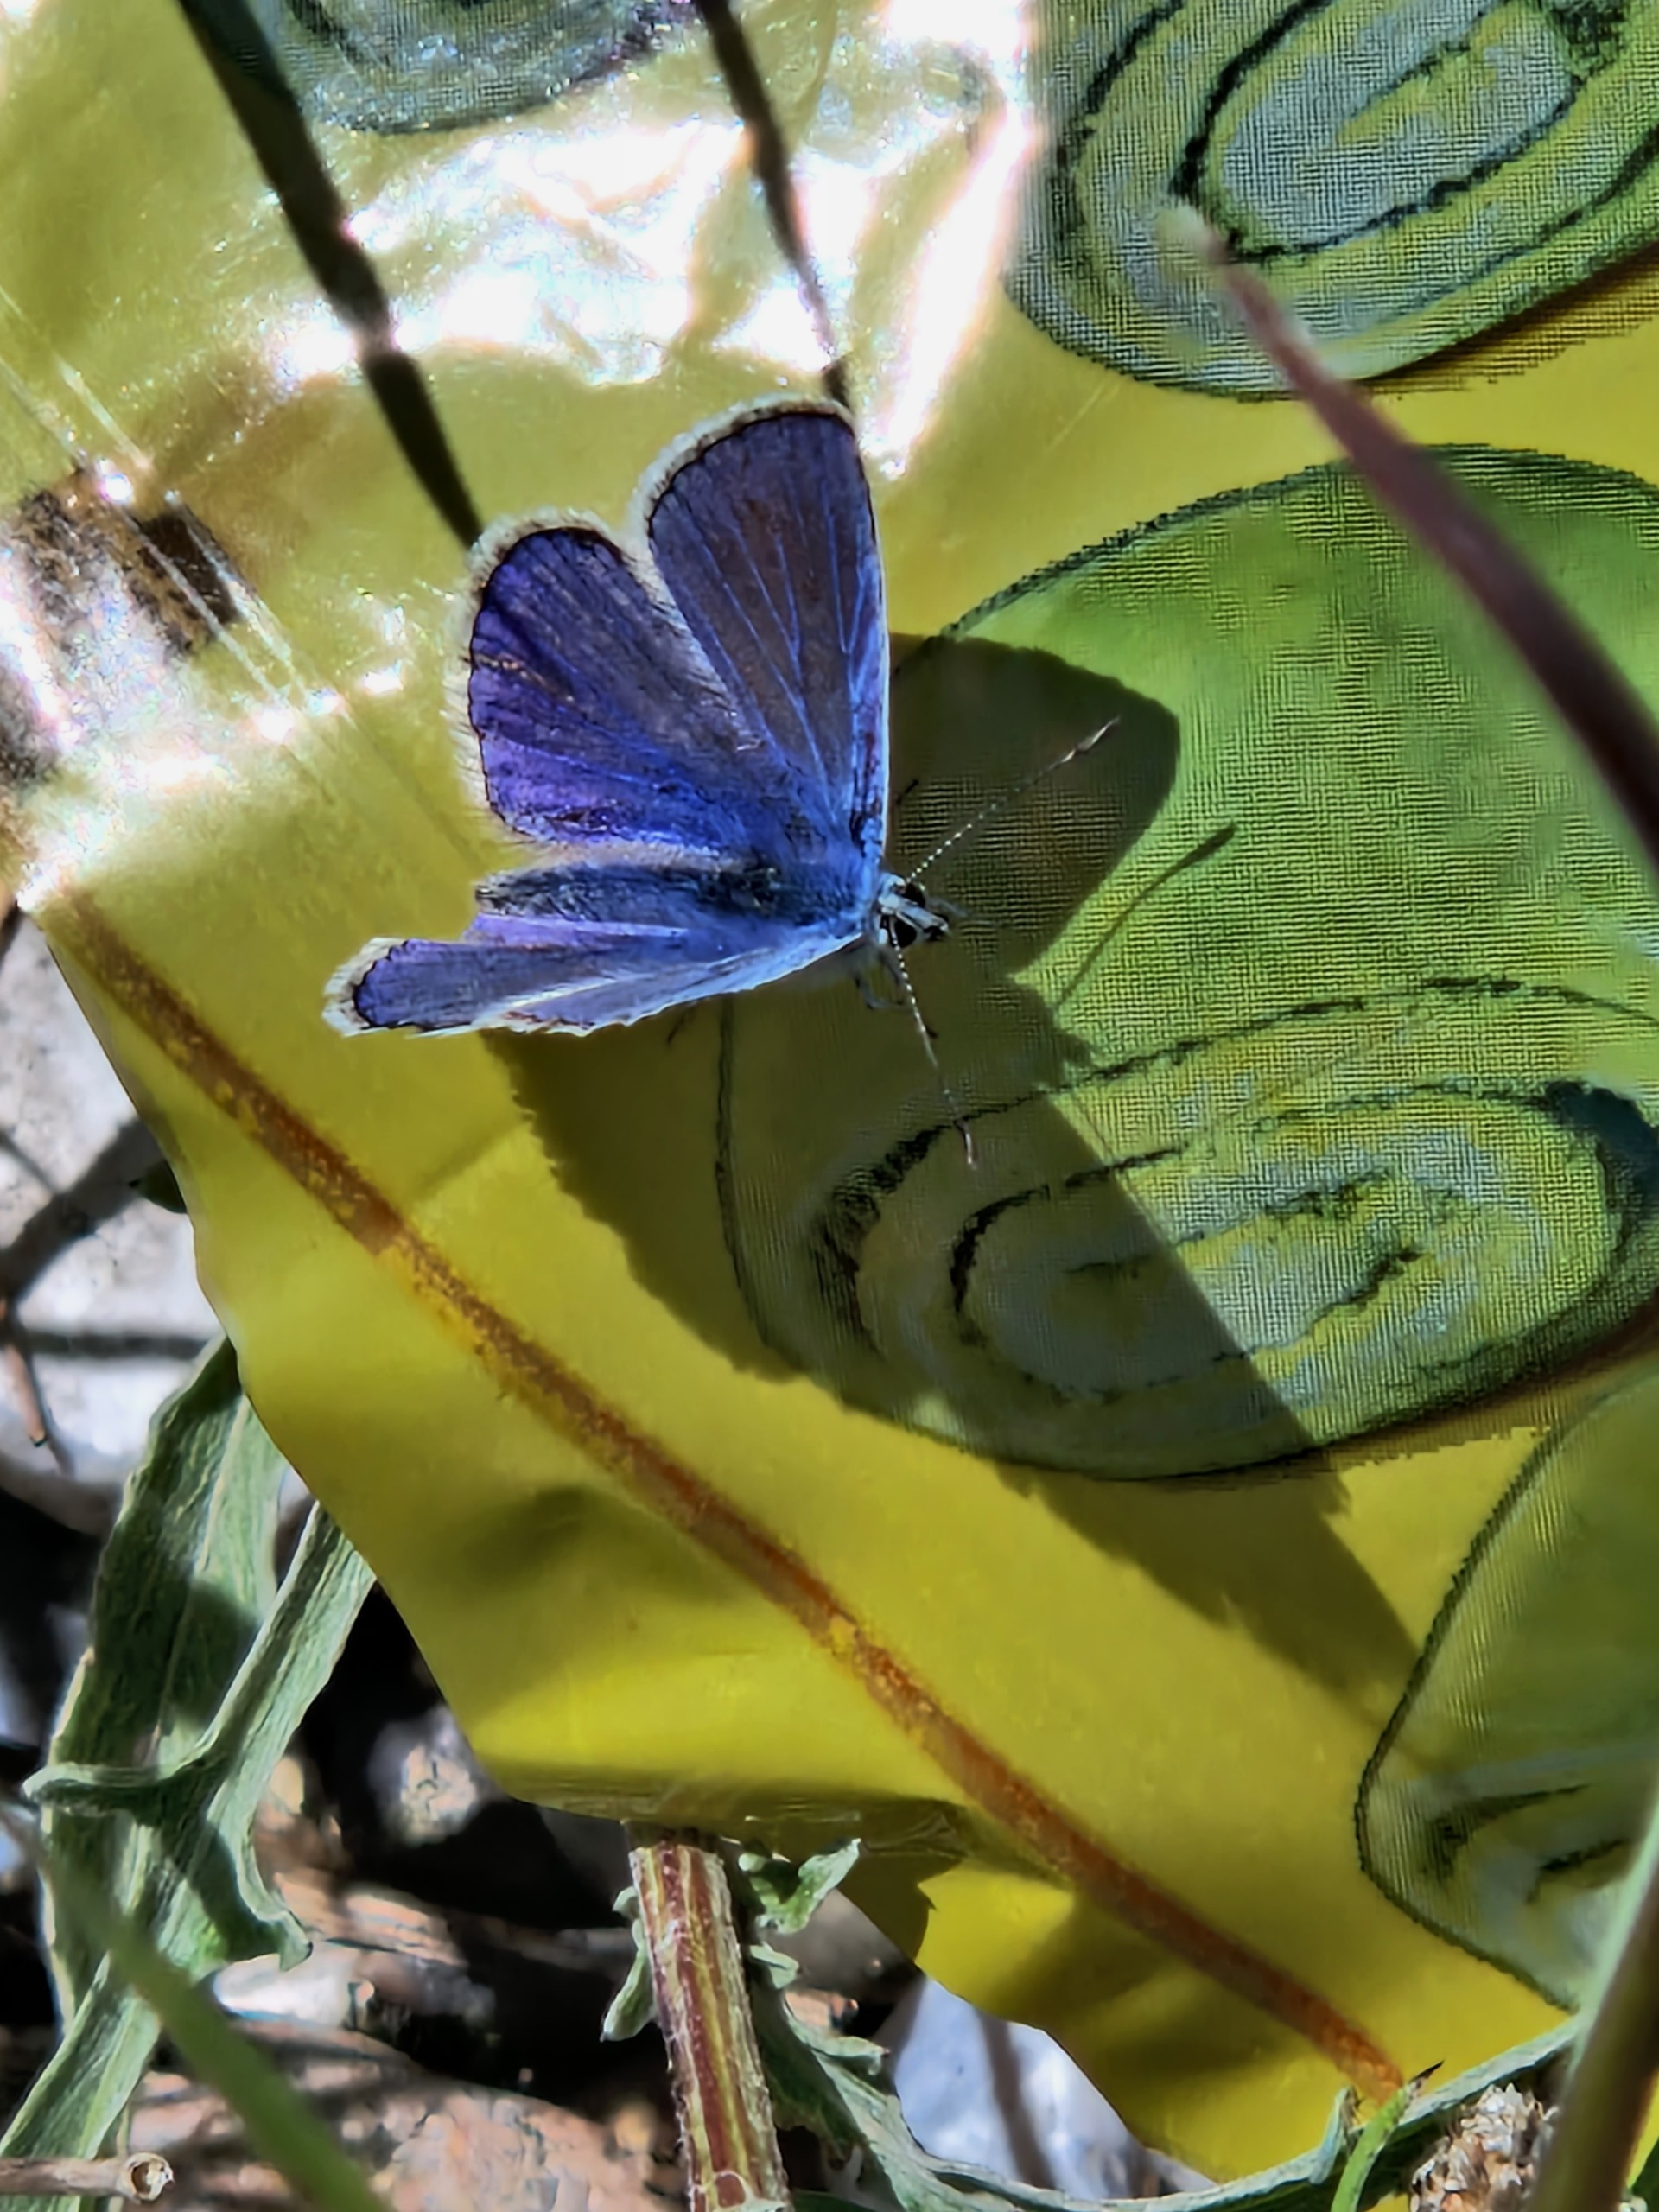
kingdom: Animalia
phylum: Arthropoda
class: Insecta
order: Lepidoptera
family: Lycaenidae
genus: Polyommatus
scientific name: Polyommatus icarus
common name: Almindelig blåfugl
